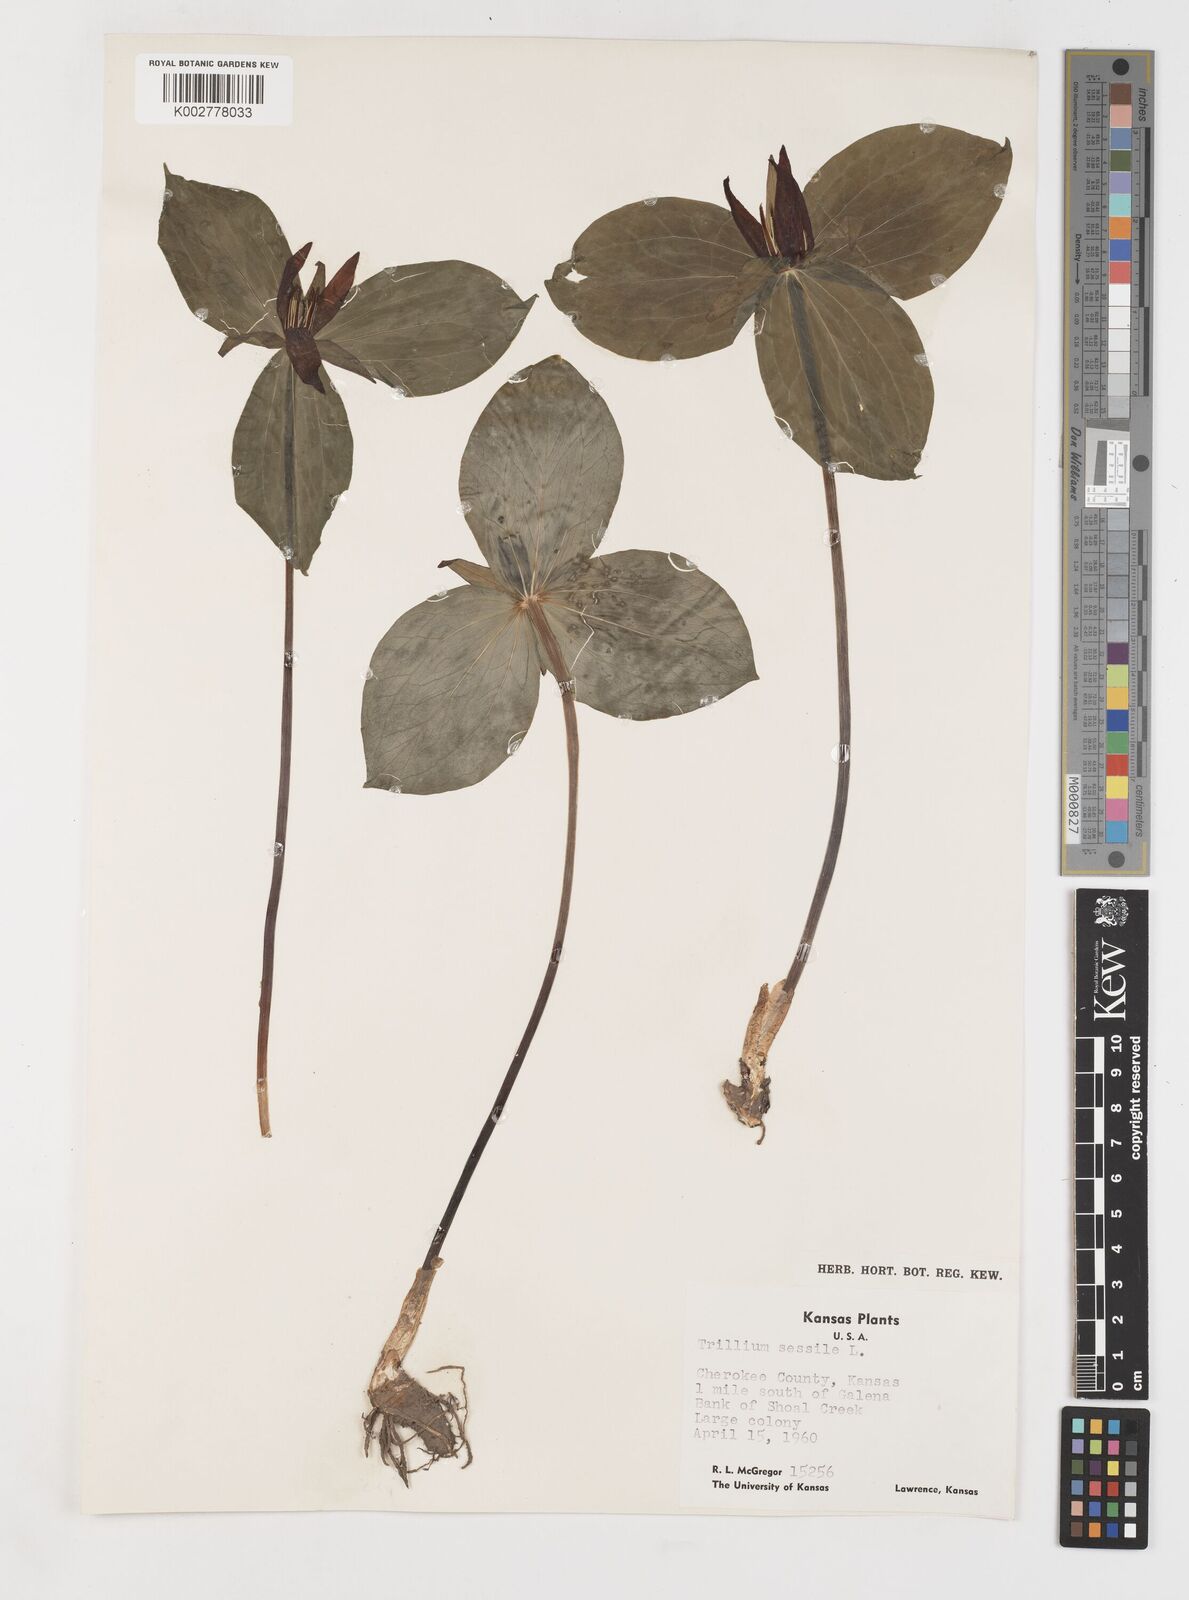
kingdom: Plantae
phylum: Tracheophyta
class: Liliopsida
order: Liliales
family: Melanthiaceae
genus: Trillium
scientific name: Trillium sessile
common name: Sessile trillium
